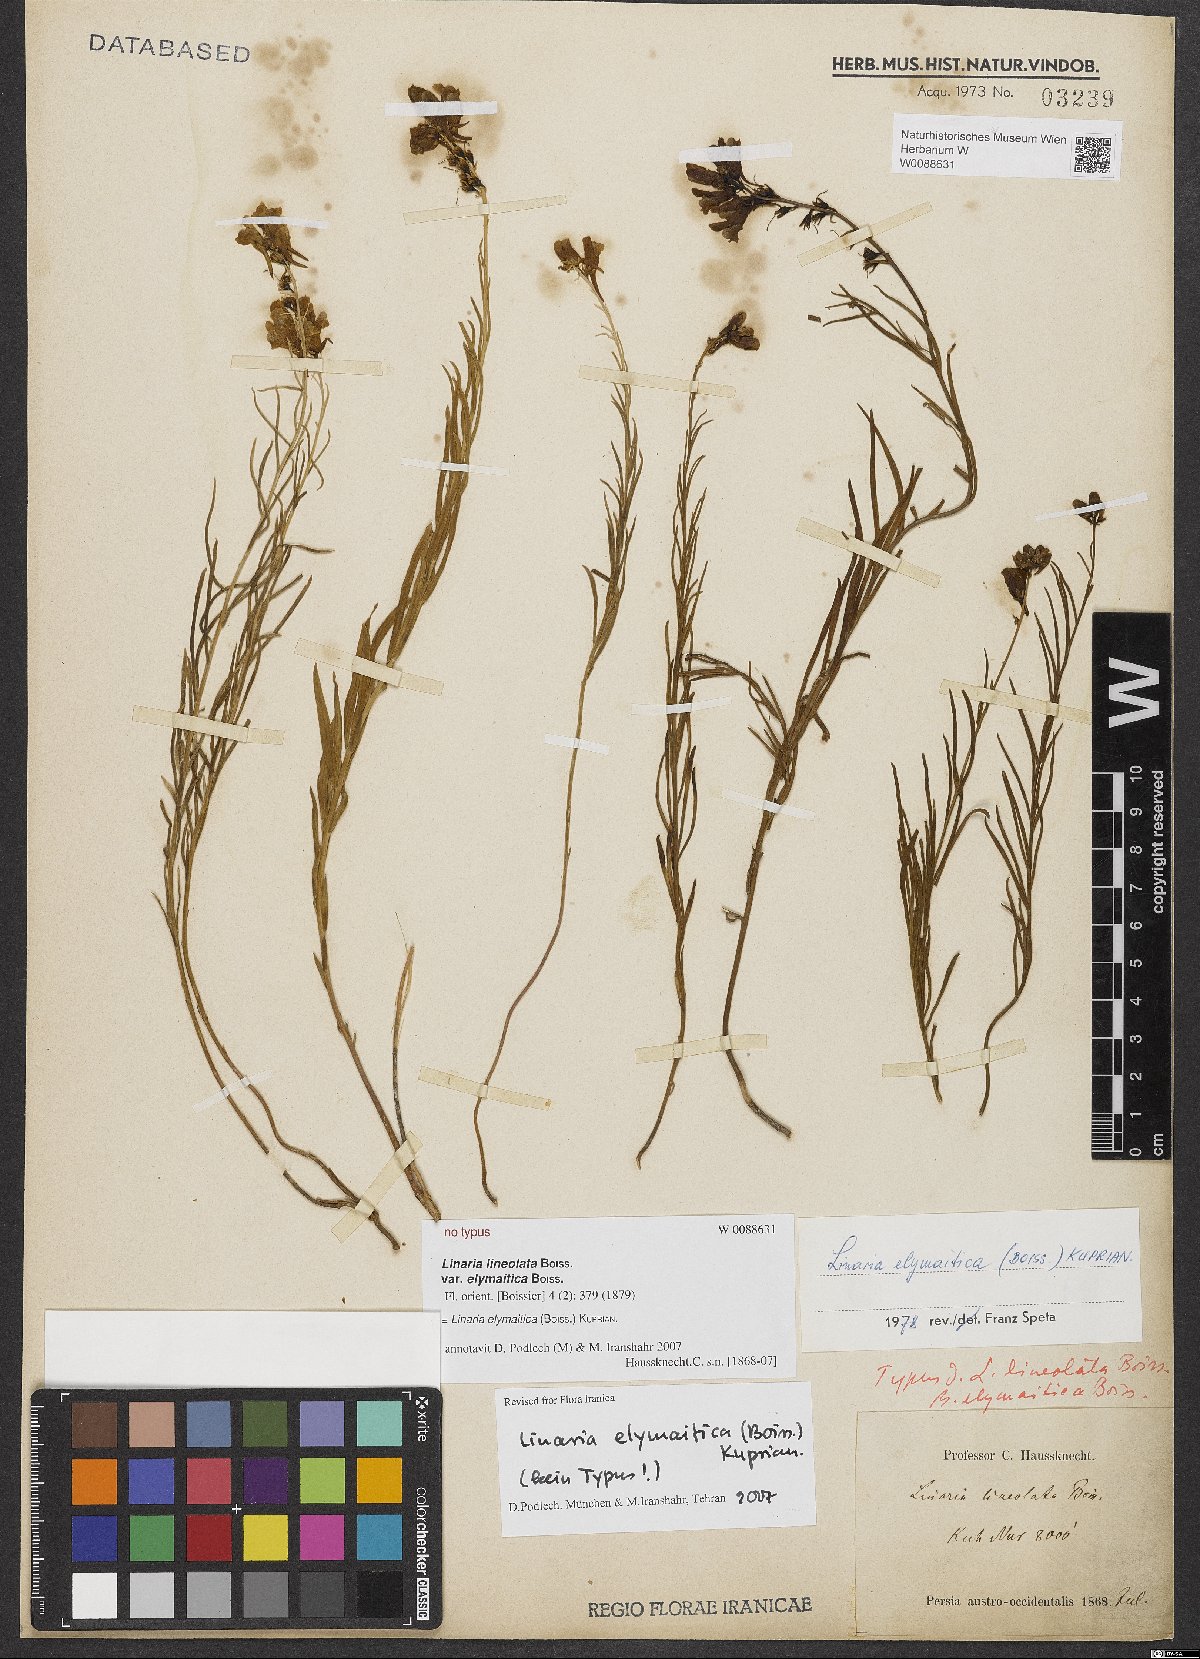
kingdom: Plantae
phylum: Tracheophyta
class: Magnoliopsida
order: Lamiales
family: Plantaginaceae
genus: Linaria
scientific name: Linaria elymaitica
